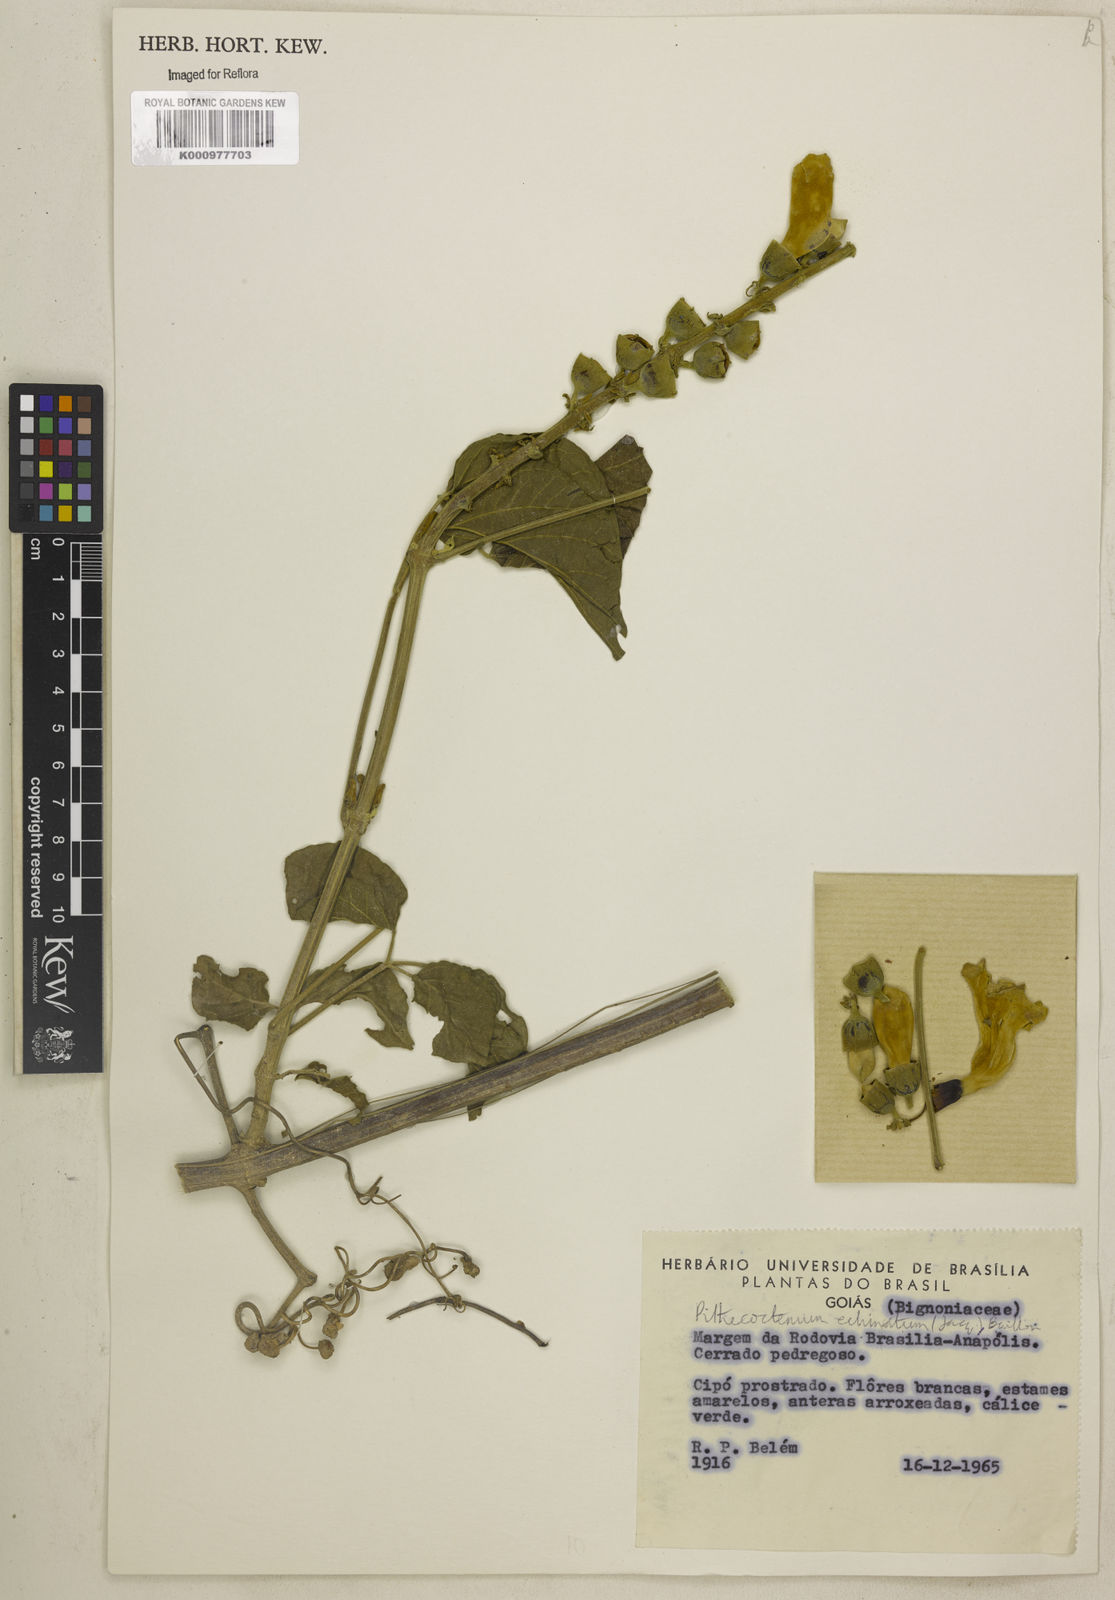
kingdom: Plantae
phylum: Tracheophyta
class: Magnoliopsida
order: Lamiales
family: Bignoniaceae
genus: Amphilophium
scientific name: Amphilophium crucigerum
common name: Monkey comb
